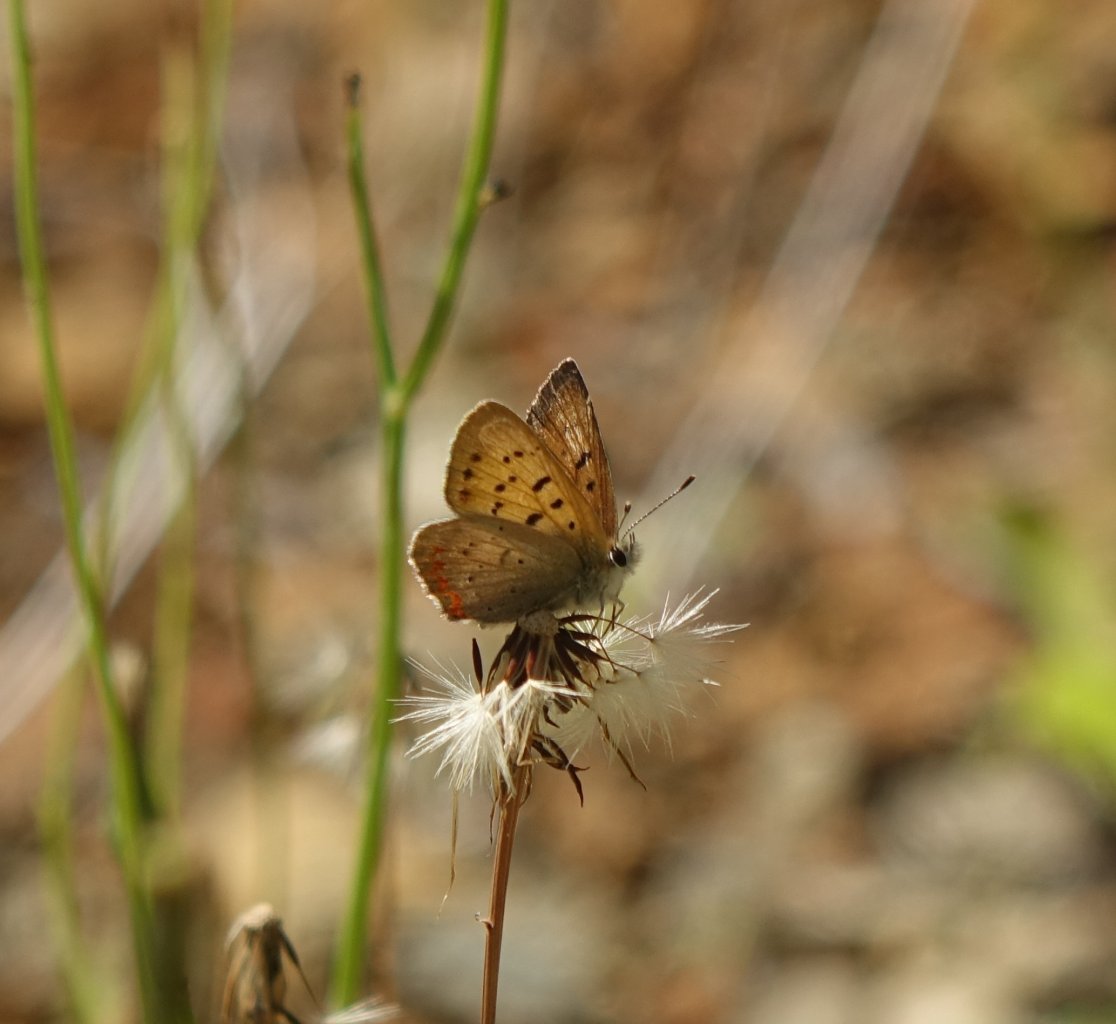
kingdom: Animalia
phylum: Arthropoda
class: Insecta
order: Lepidoptera
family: Sesiidae
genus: Sesia
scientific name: Sesia Lycaena helloides
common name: Purplish Copper
